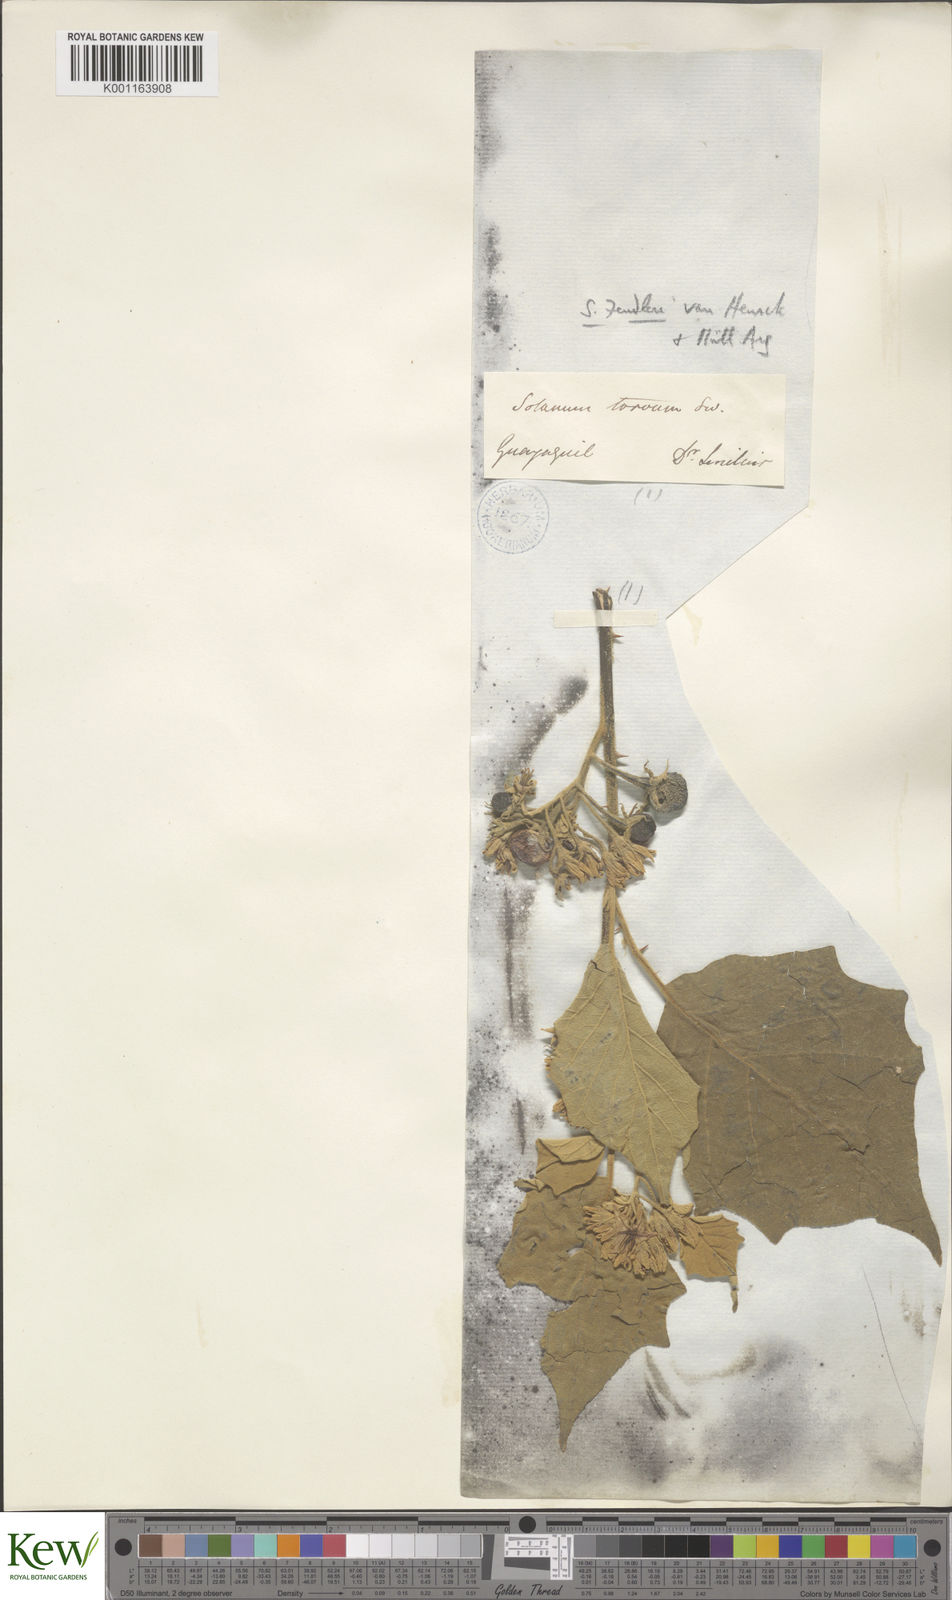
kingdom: Plantae
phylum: Tracheophyta
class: Magnoliopsida
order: Solanales
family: Solanaceae
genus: Solanum
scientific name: Solanum
